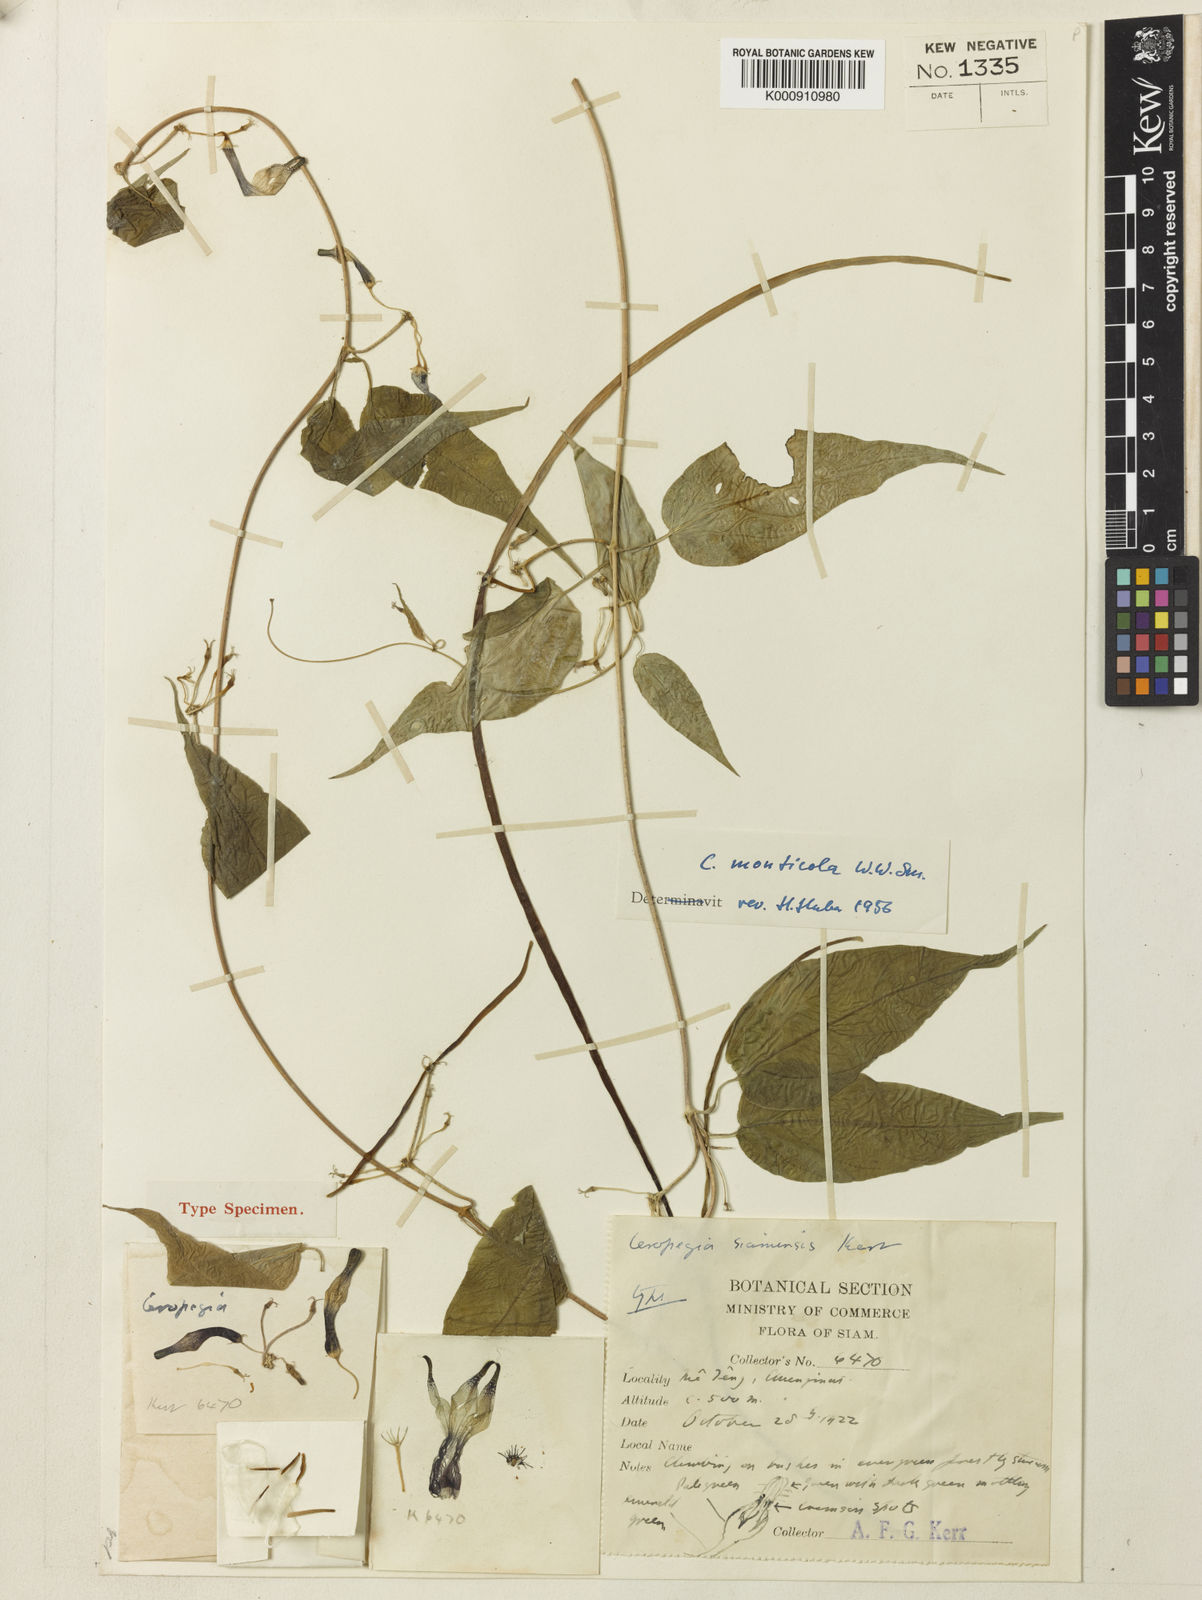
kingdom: Plantae
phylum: Tracheophyta
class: Magnoliopsida
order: Gentianales
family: Apocynaceae
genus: Ceropegia
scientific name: Ceropegia monticola
